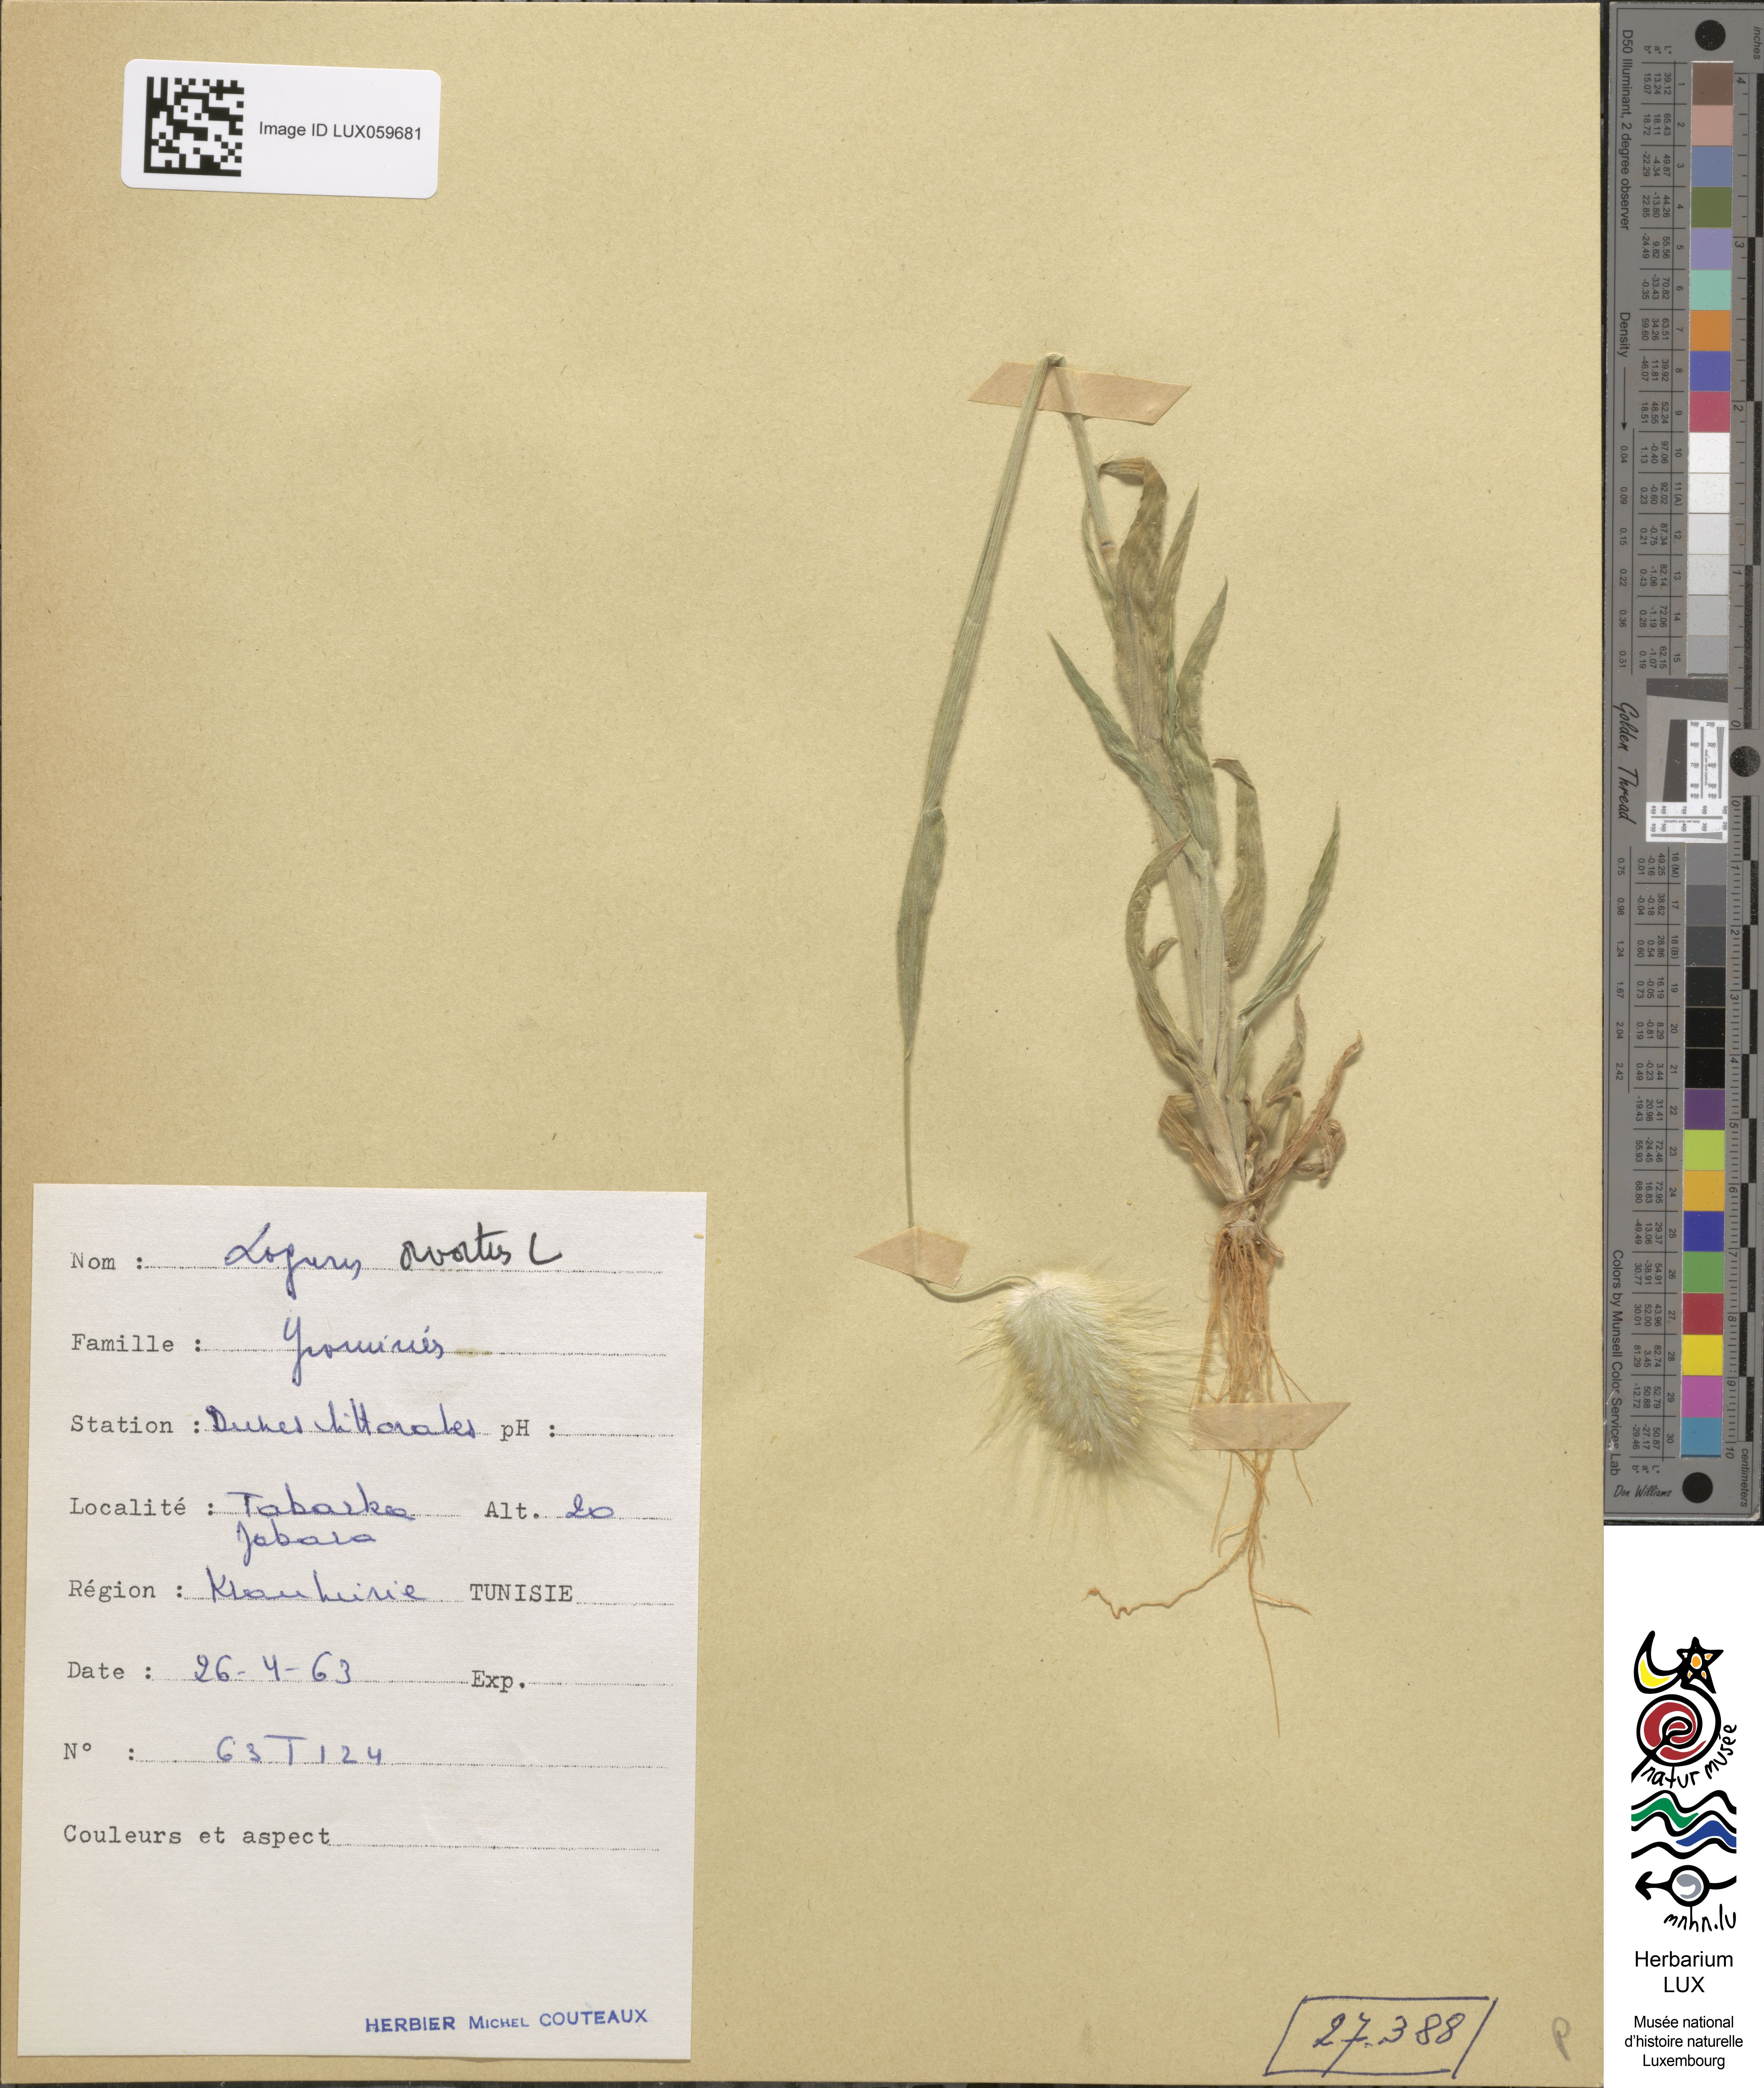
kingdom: Plantae
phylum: Tracheophyta
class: Liliopsida
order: Poales
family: Poaceae
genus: Lagurus
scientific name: Lagurus ovatus
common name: Hare's-tail
